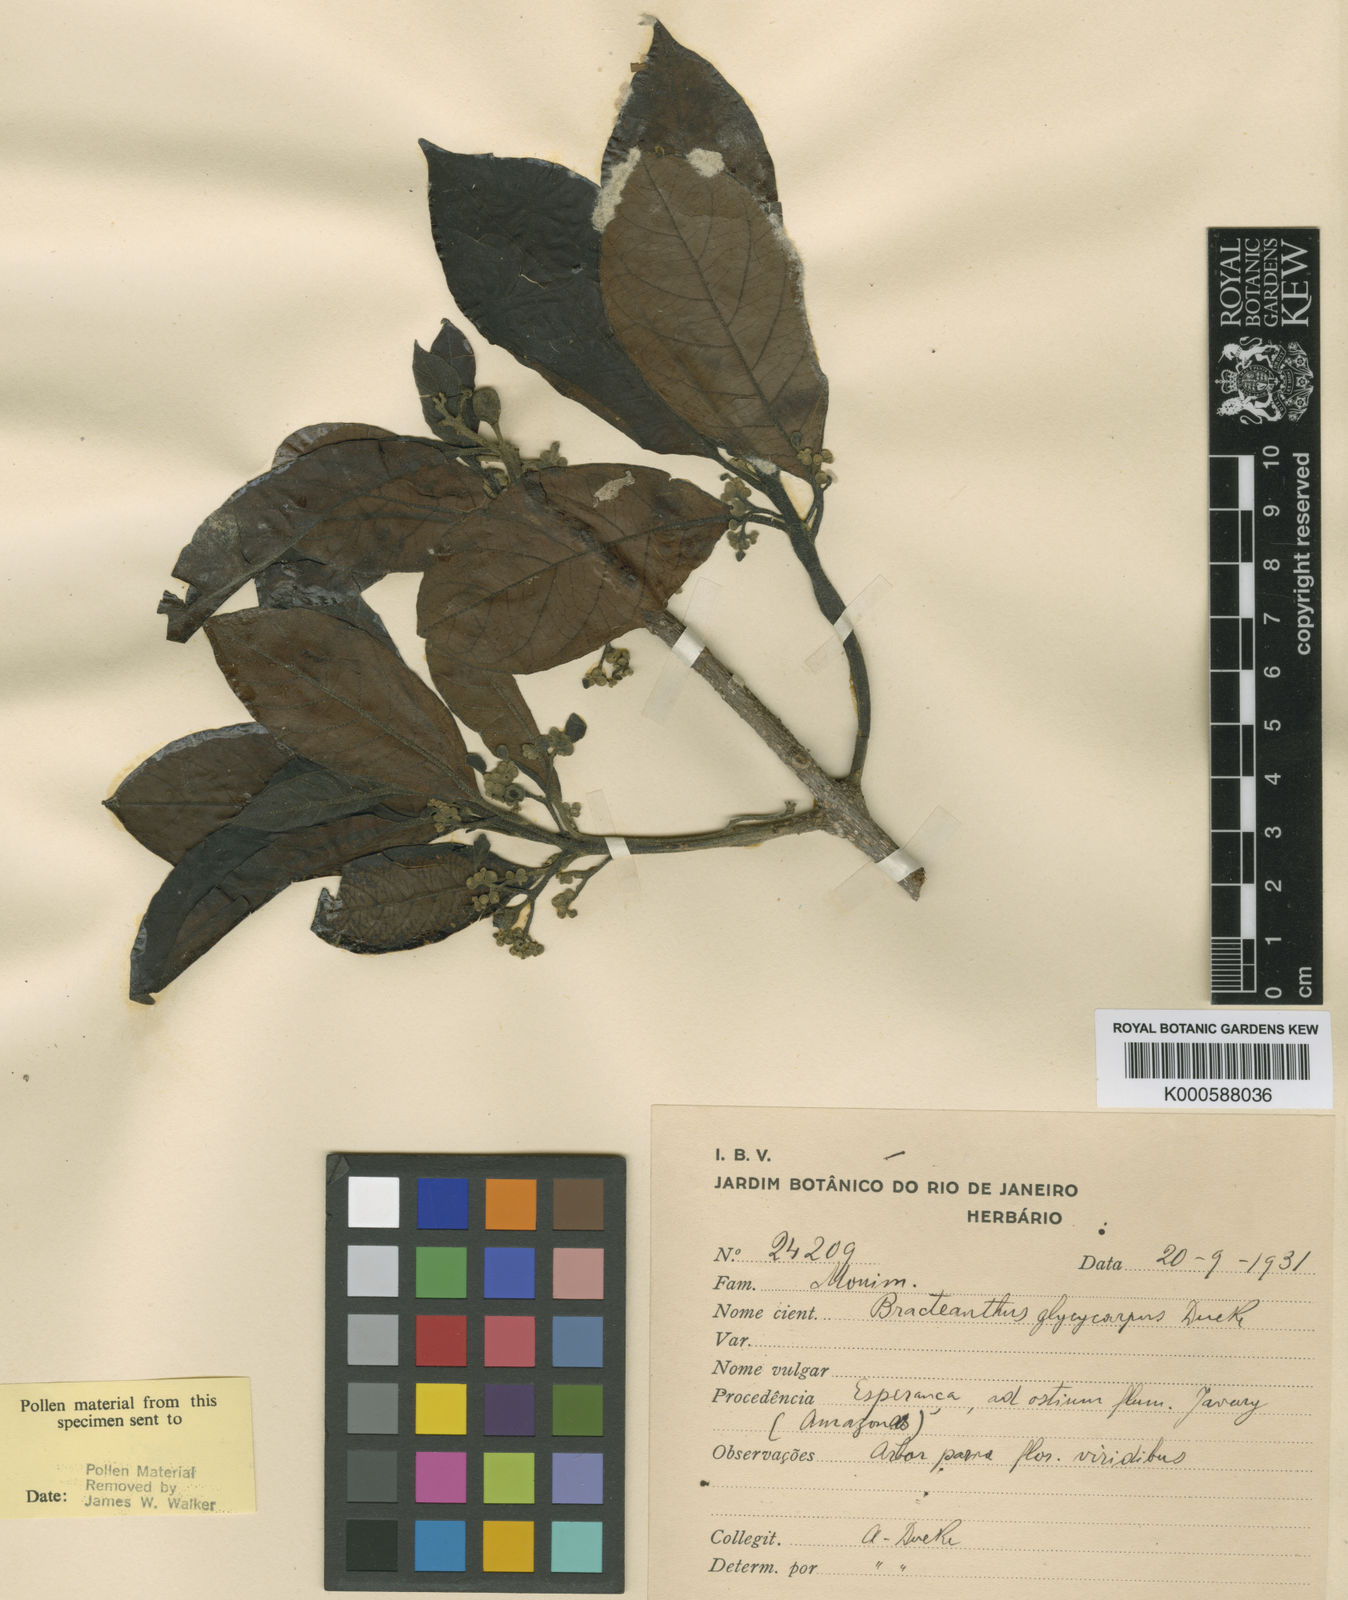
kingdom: Plantae
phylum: Tracheophyta
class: Magnoliopsida
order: Laurales
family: Siparunaceae
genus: Siparuna
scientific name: Siparuna glycycarpa
